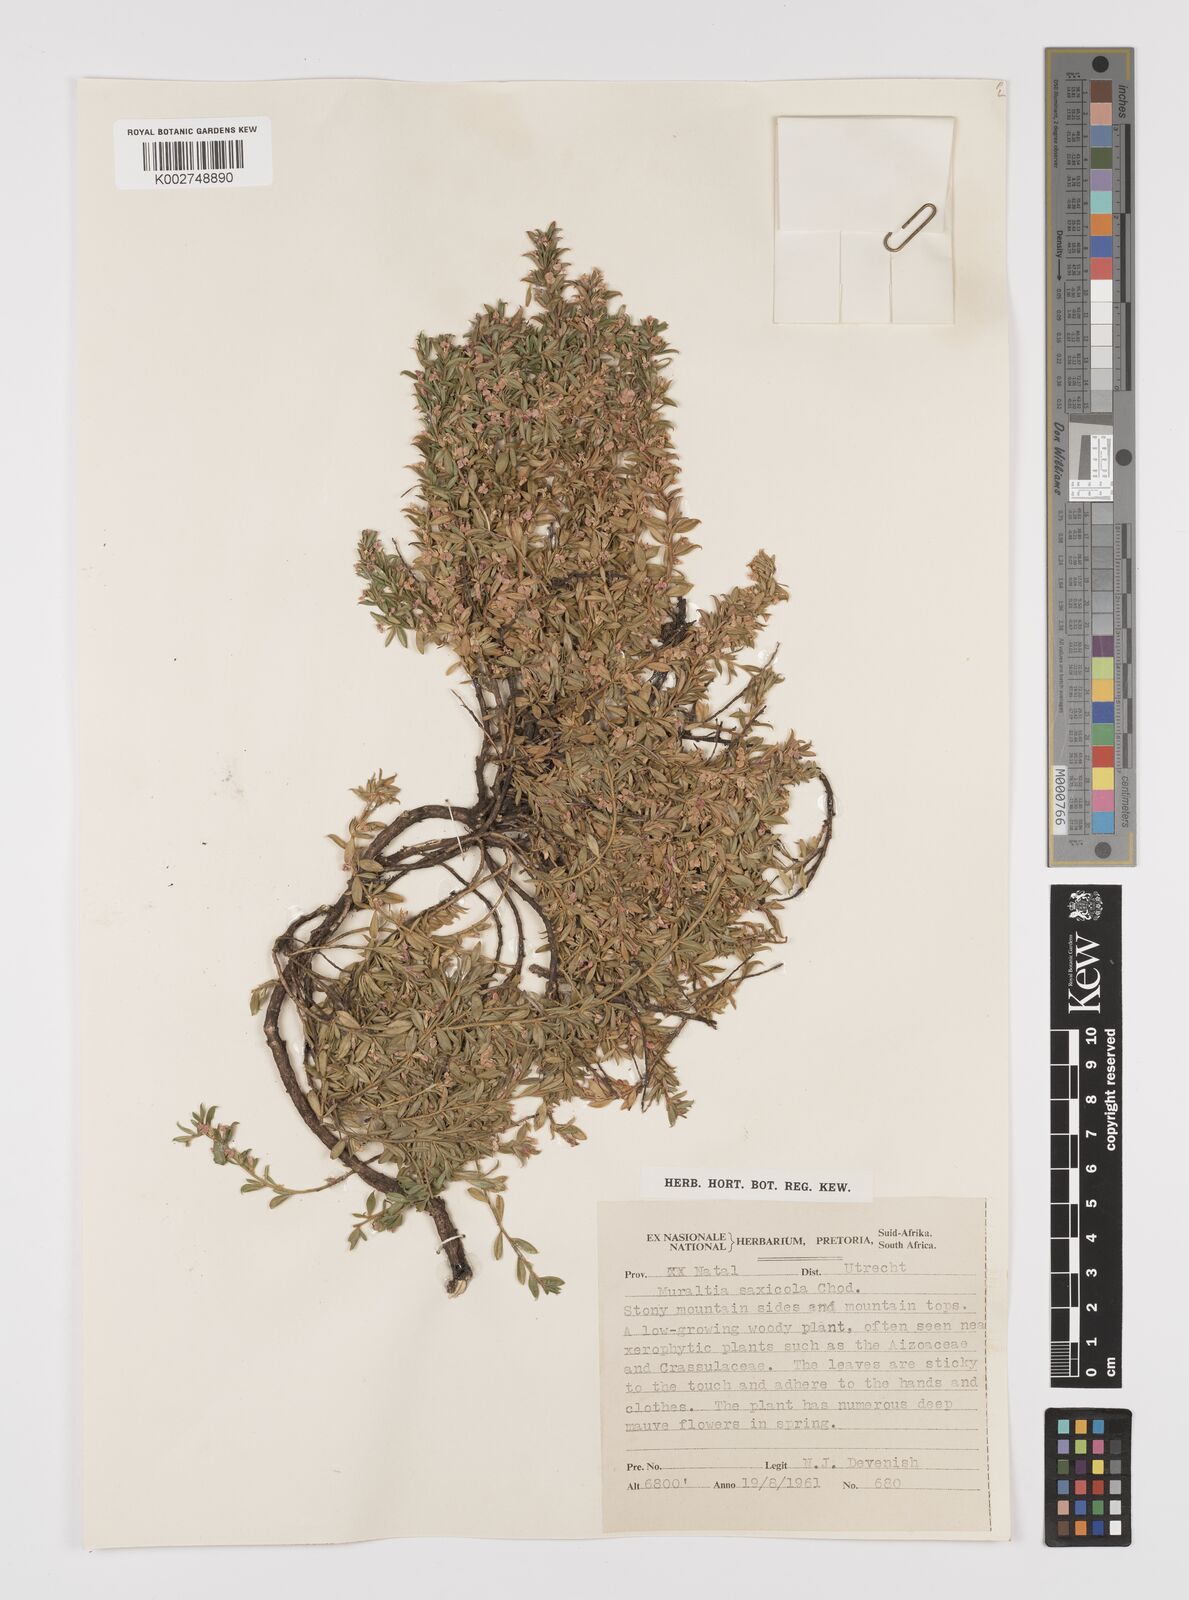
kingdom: Plantae
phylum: Tracheophyta
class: Magnoliopsida
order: Fabales
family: Polygalaceae
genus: Muraltia
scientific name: Muraltia saxicola
